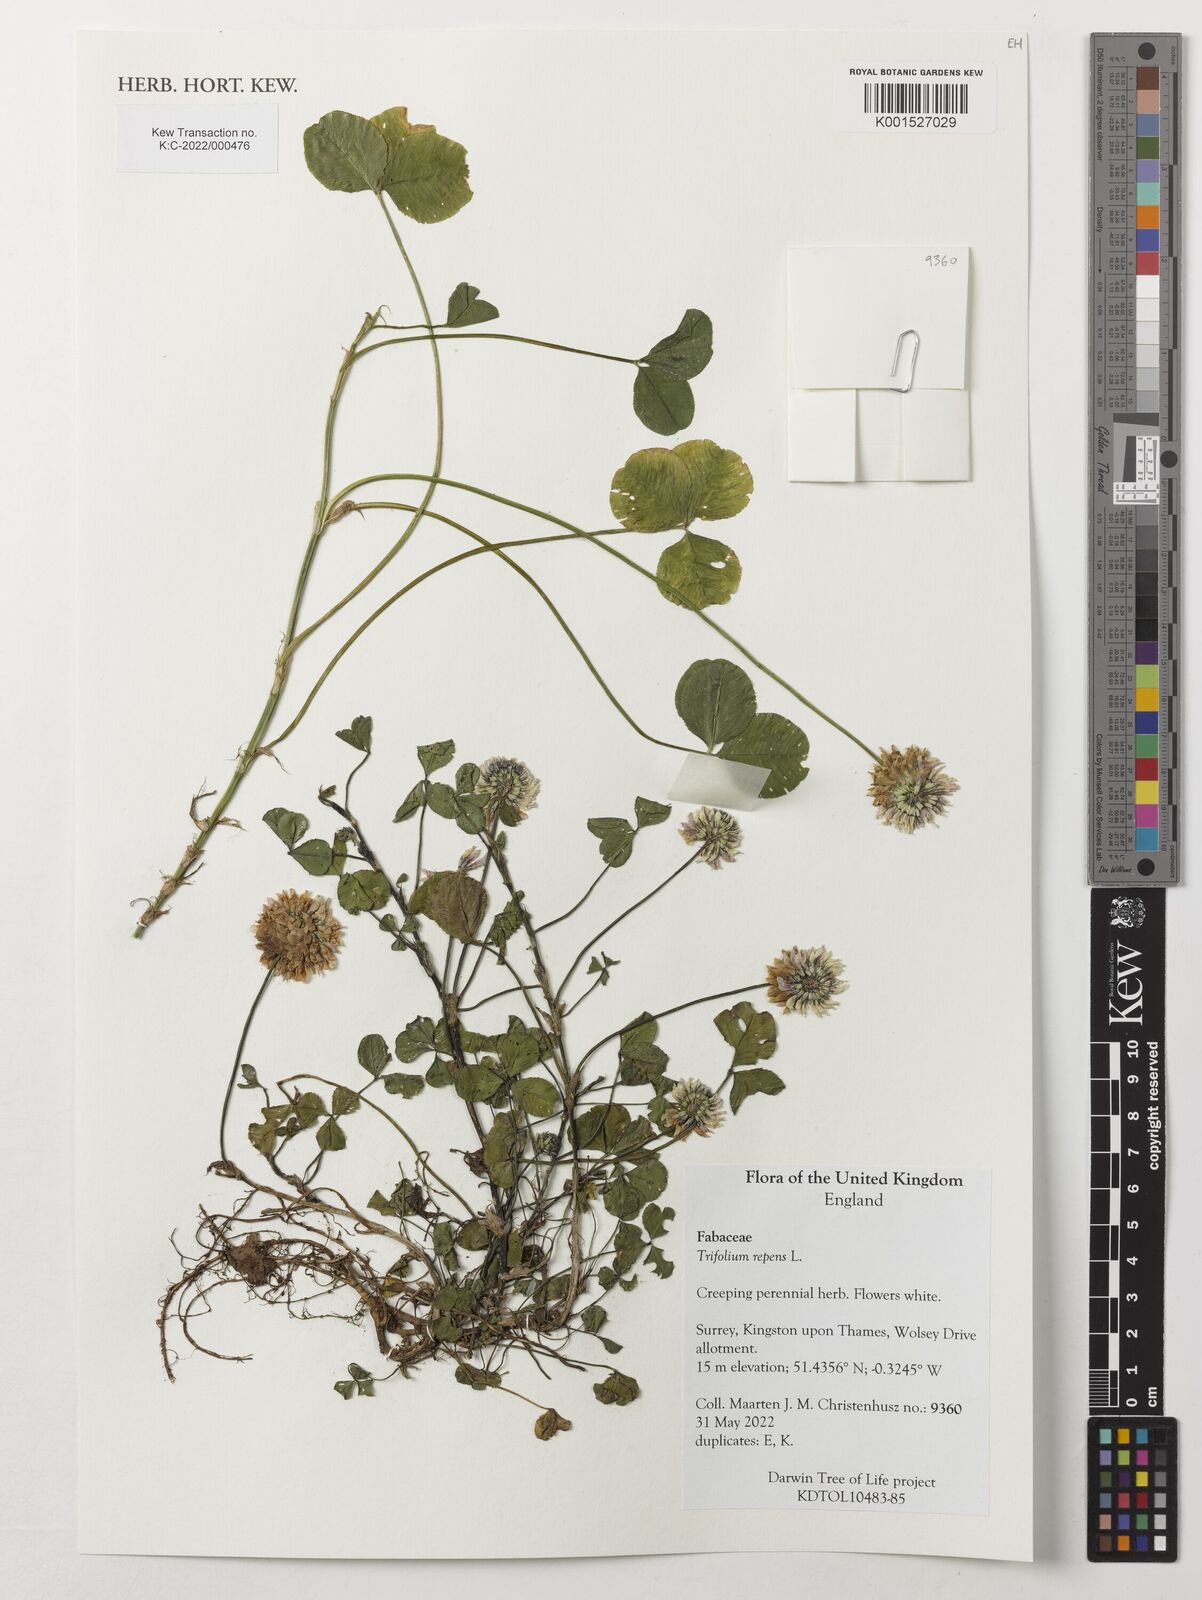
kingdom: Plantae
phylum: Tracheophyta
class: Magnoliopsida
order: Fabales
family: Fabaceae
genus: Trifolium
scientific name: Trifolium repens
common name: White clover
